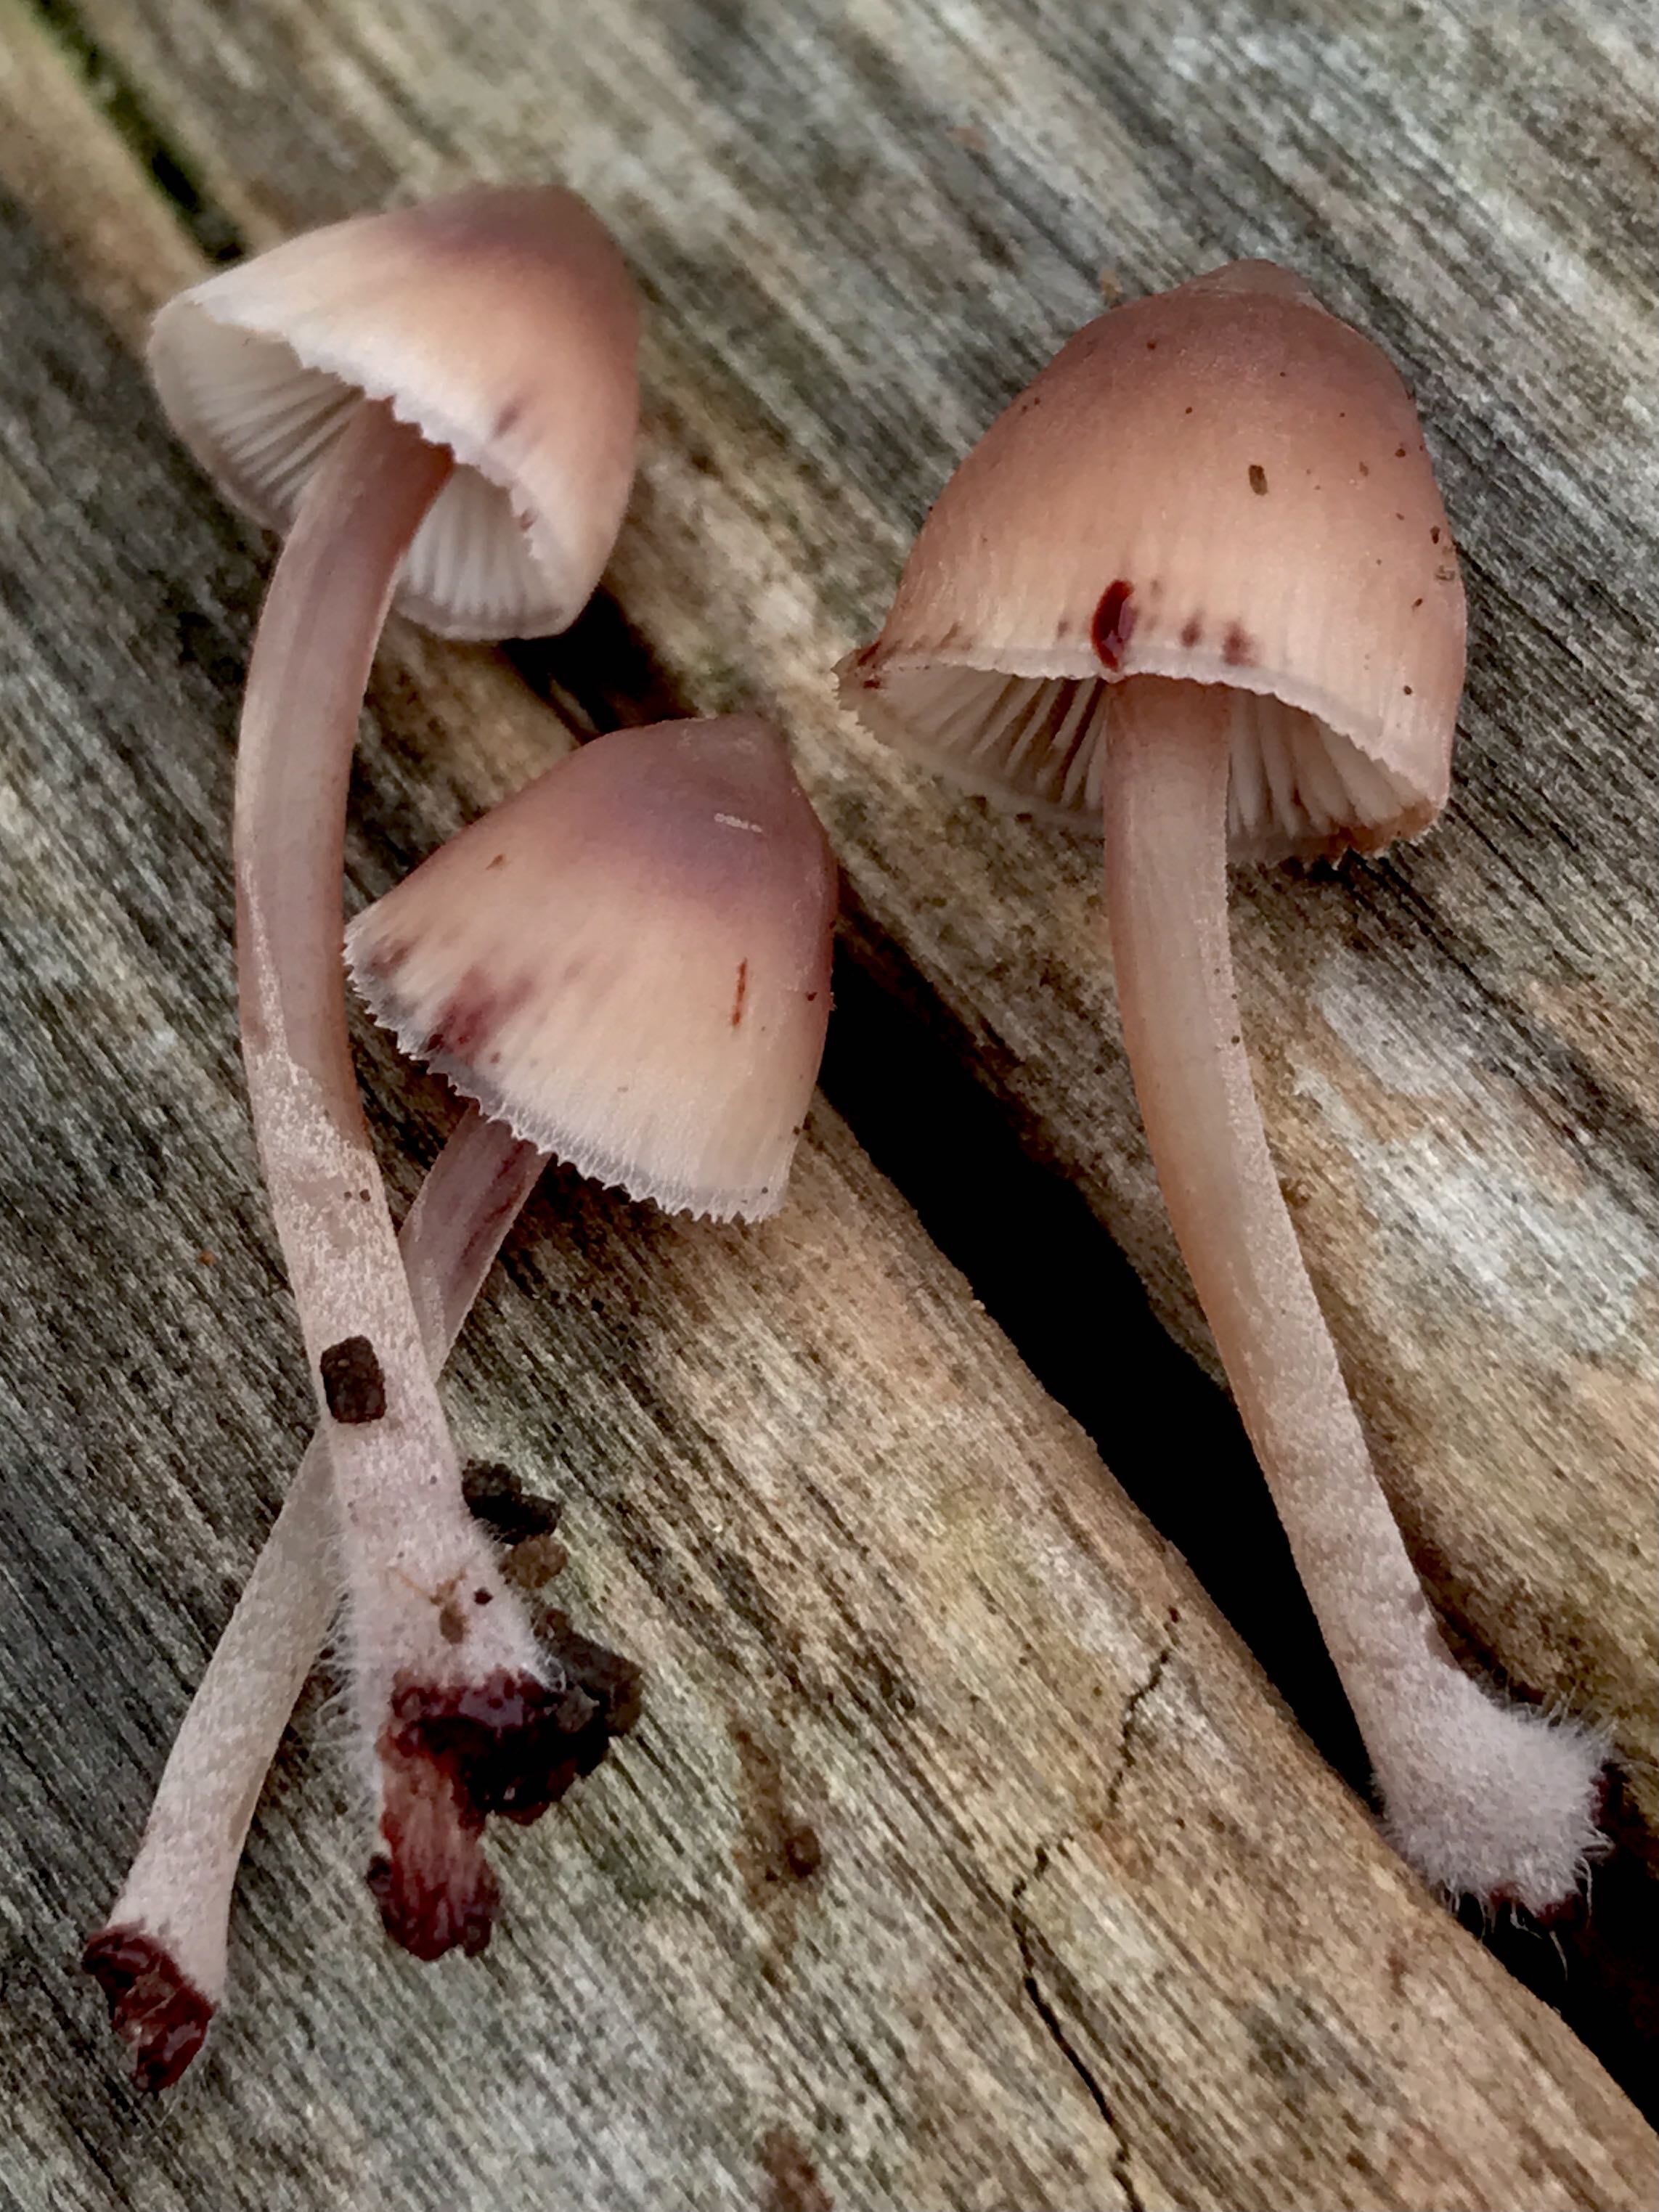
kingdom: Fungi
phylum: Basidiomycota
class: Agaricomycetes
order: Agaricales
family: Mycenaceae
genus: Mycena
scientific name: Mycena haematopus
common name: blødende huesvamp
